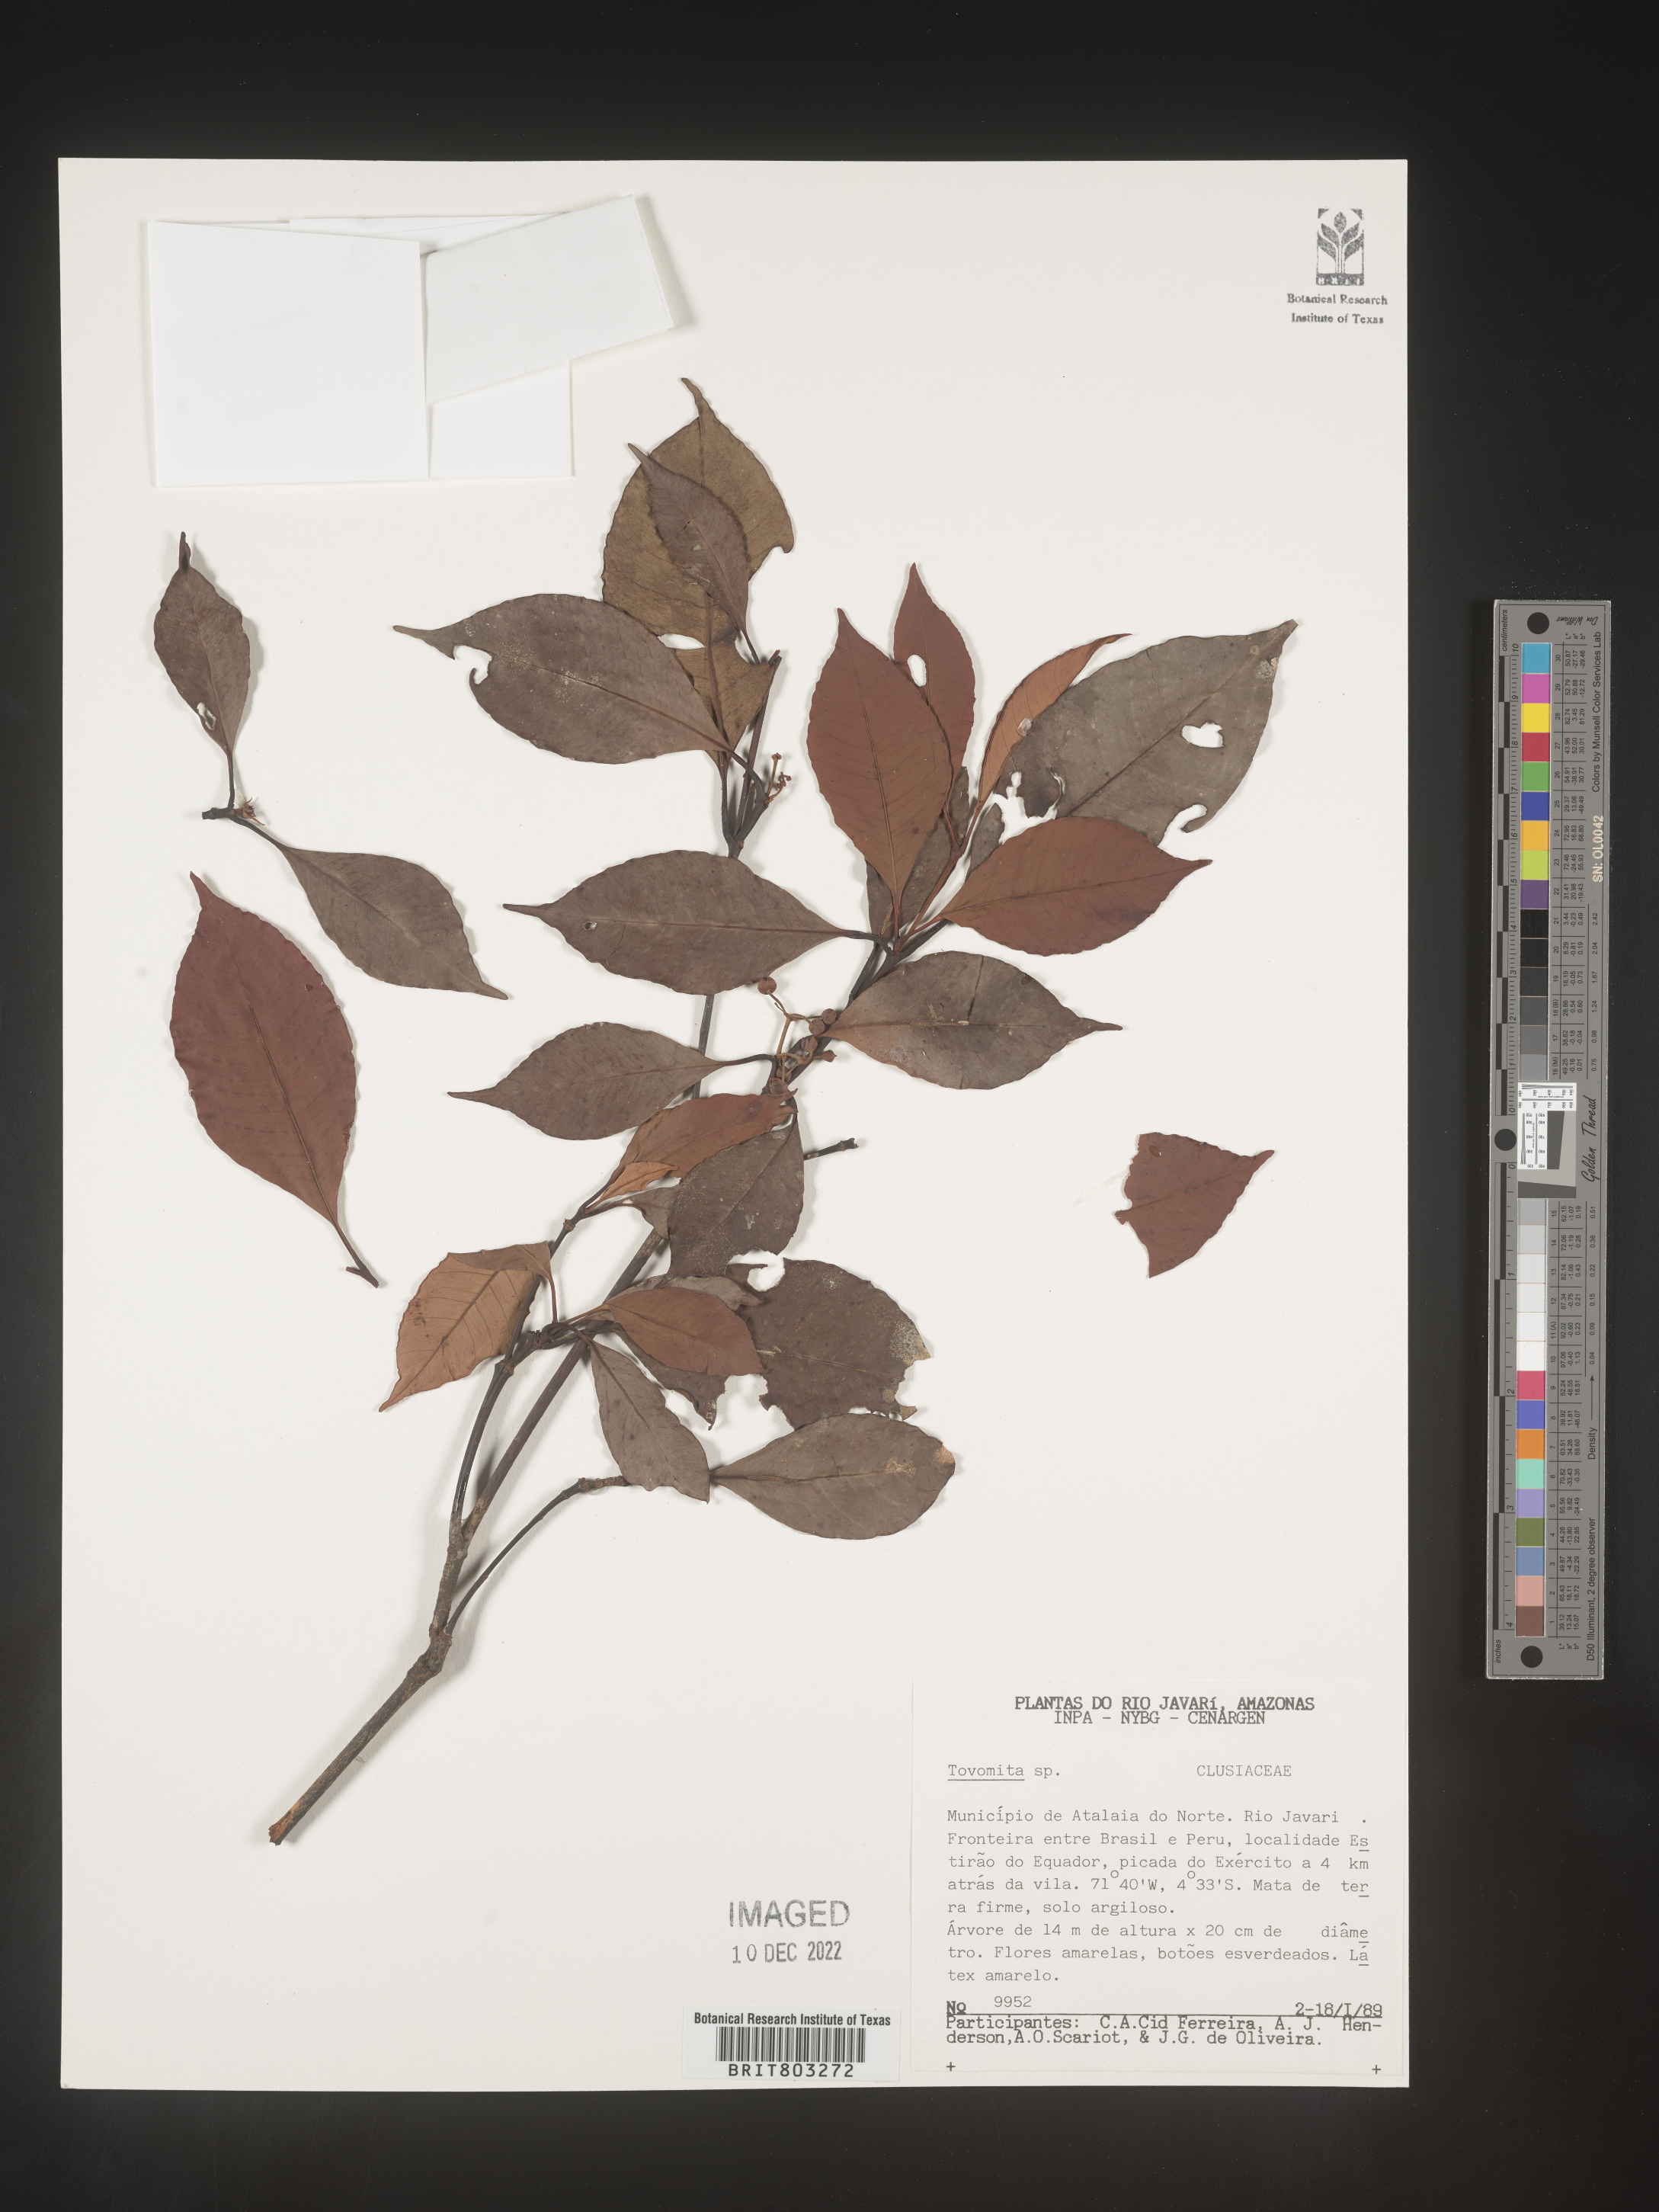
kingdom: Plantae
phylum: Tracheophyta
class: Magnoliopsida
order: Malpighiales
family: Clusiaceae
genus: Tovomita
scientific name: Tovomita
